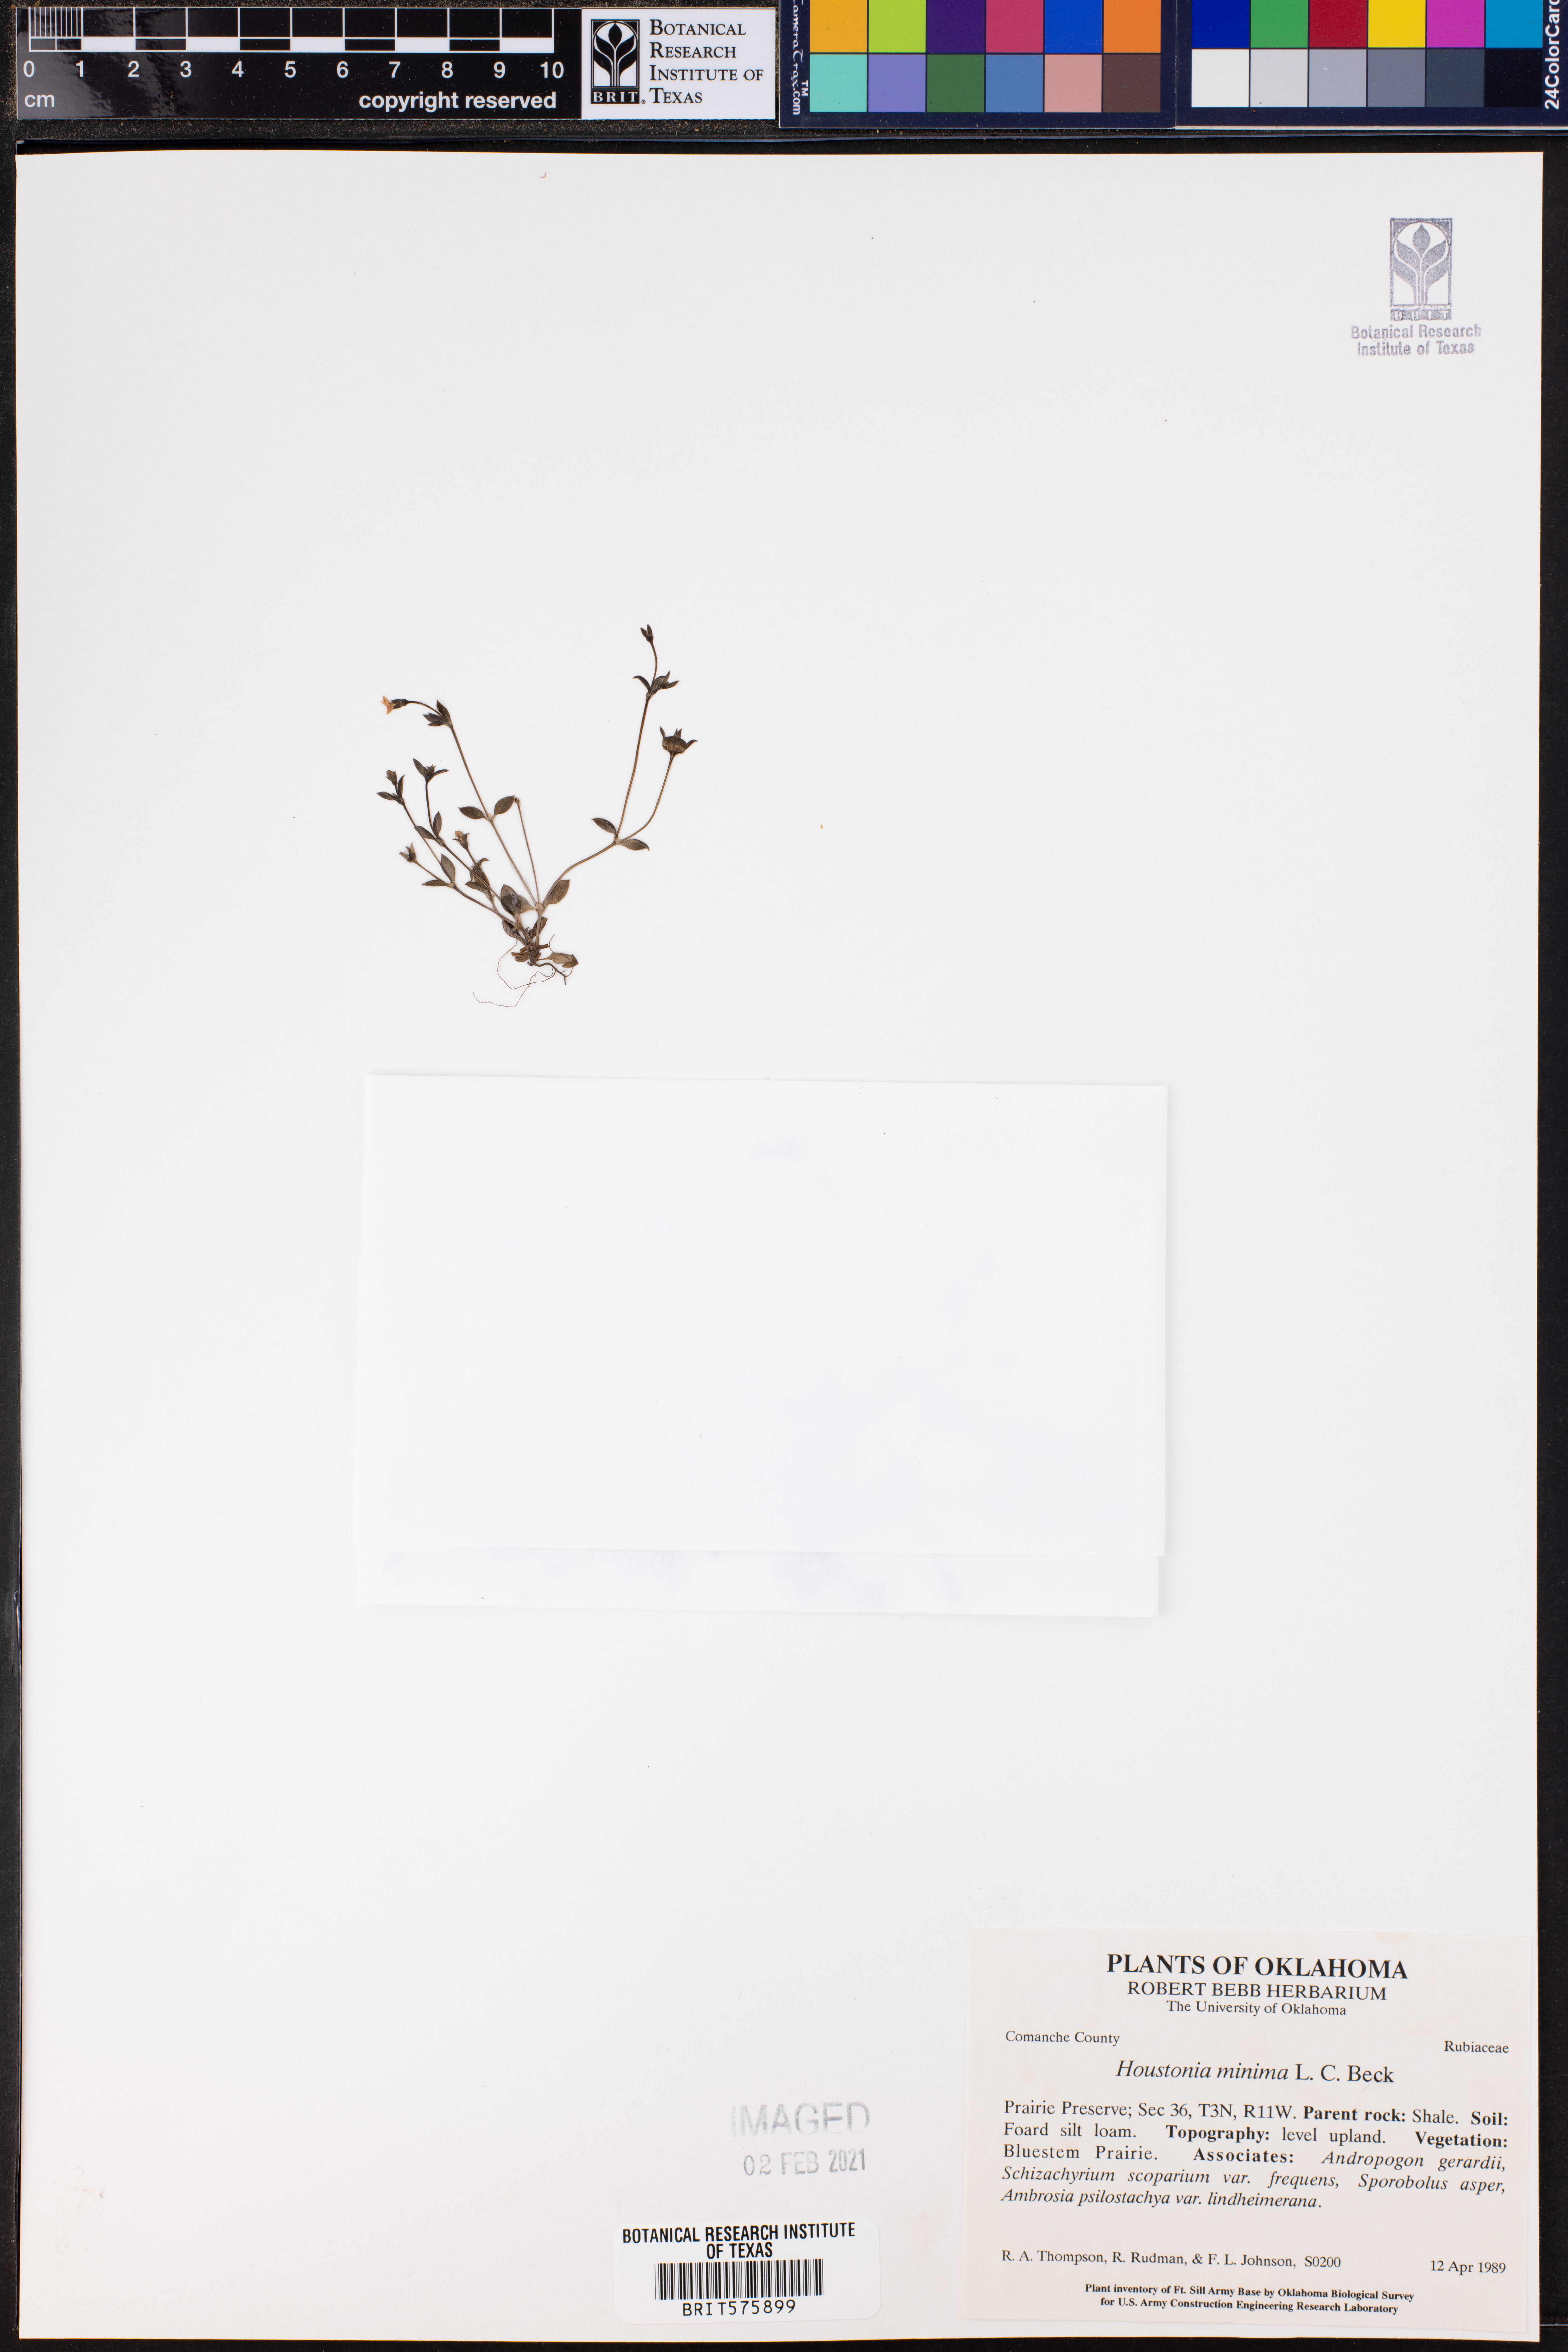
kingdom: Plantae
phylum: Tracheophyta
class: Magnoliopsida
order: Gentianales
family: Rubiaceae
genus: Houstonia
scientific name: Houstonia pusilla
